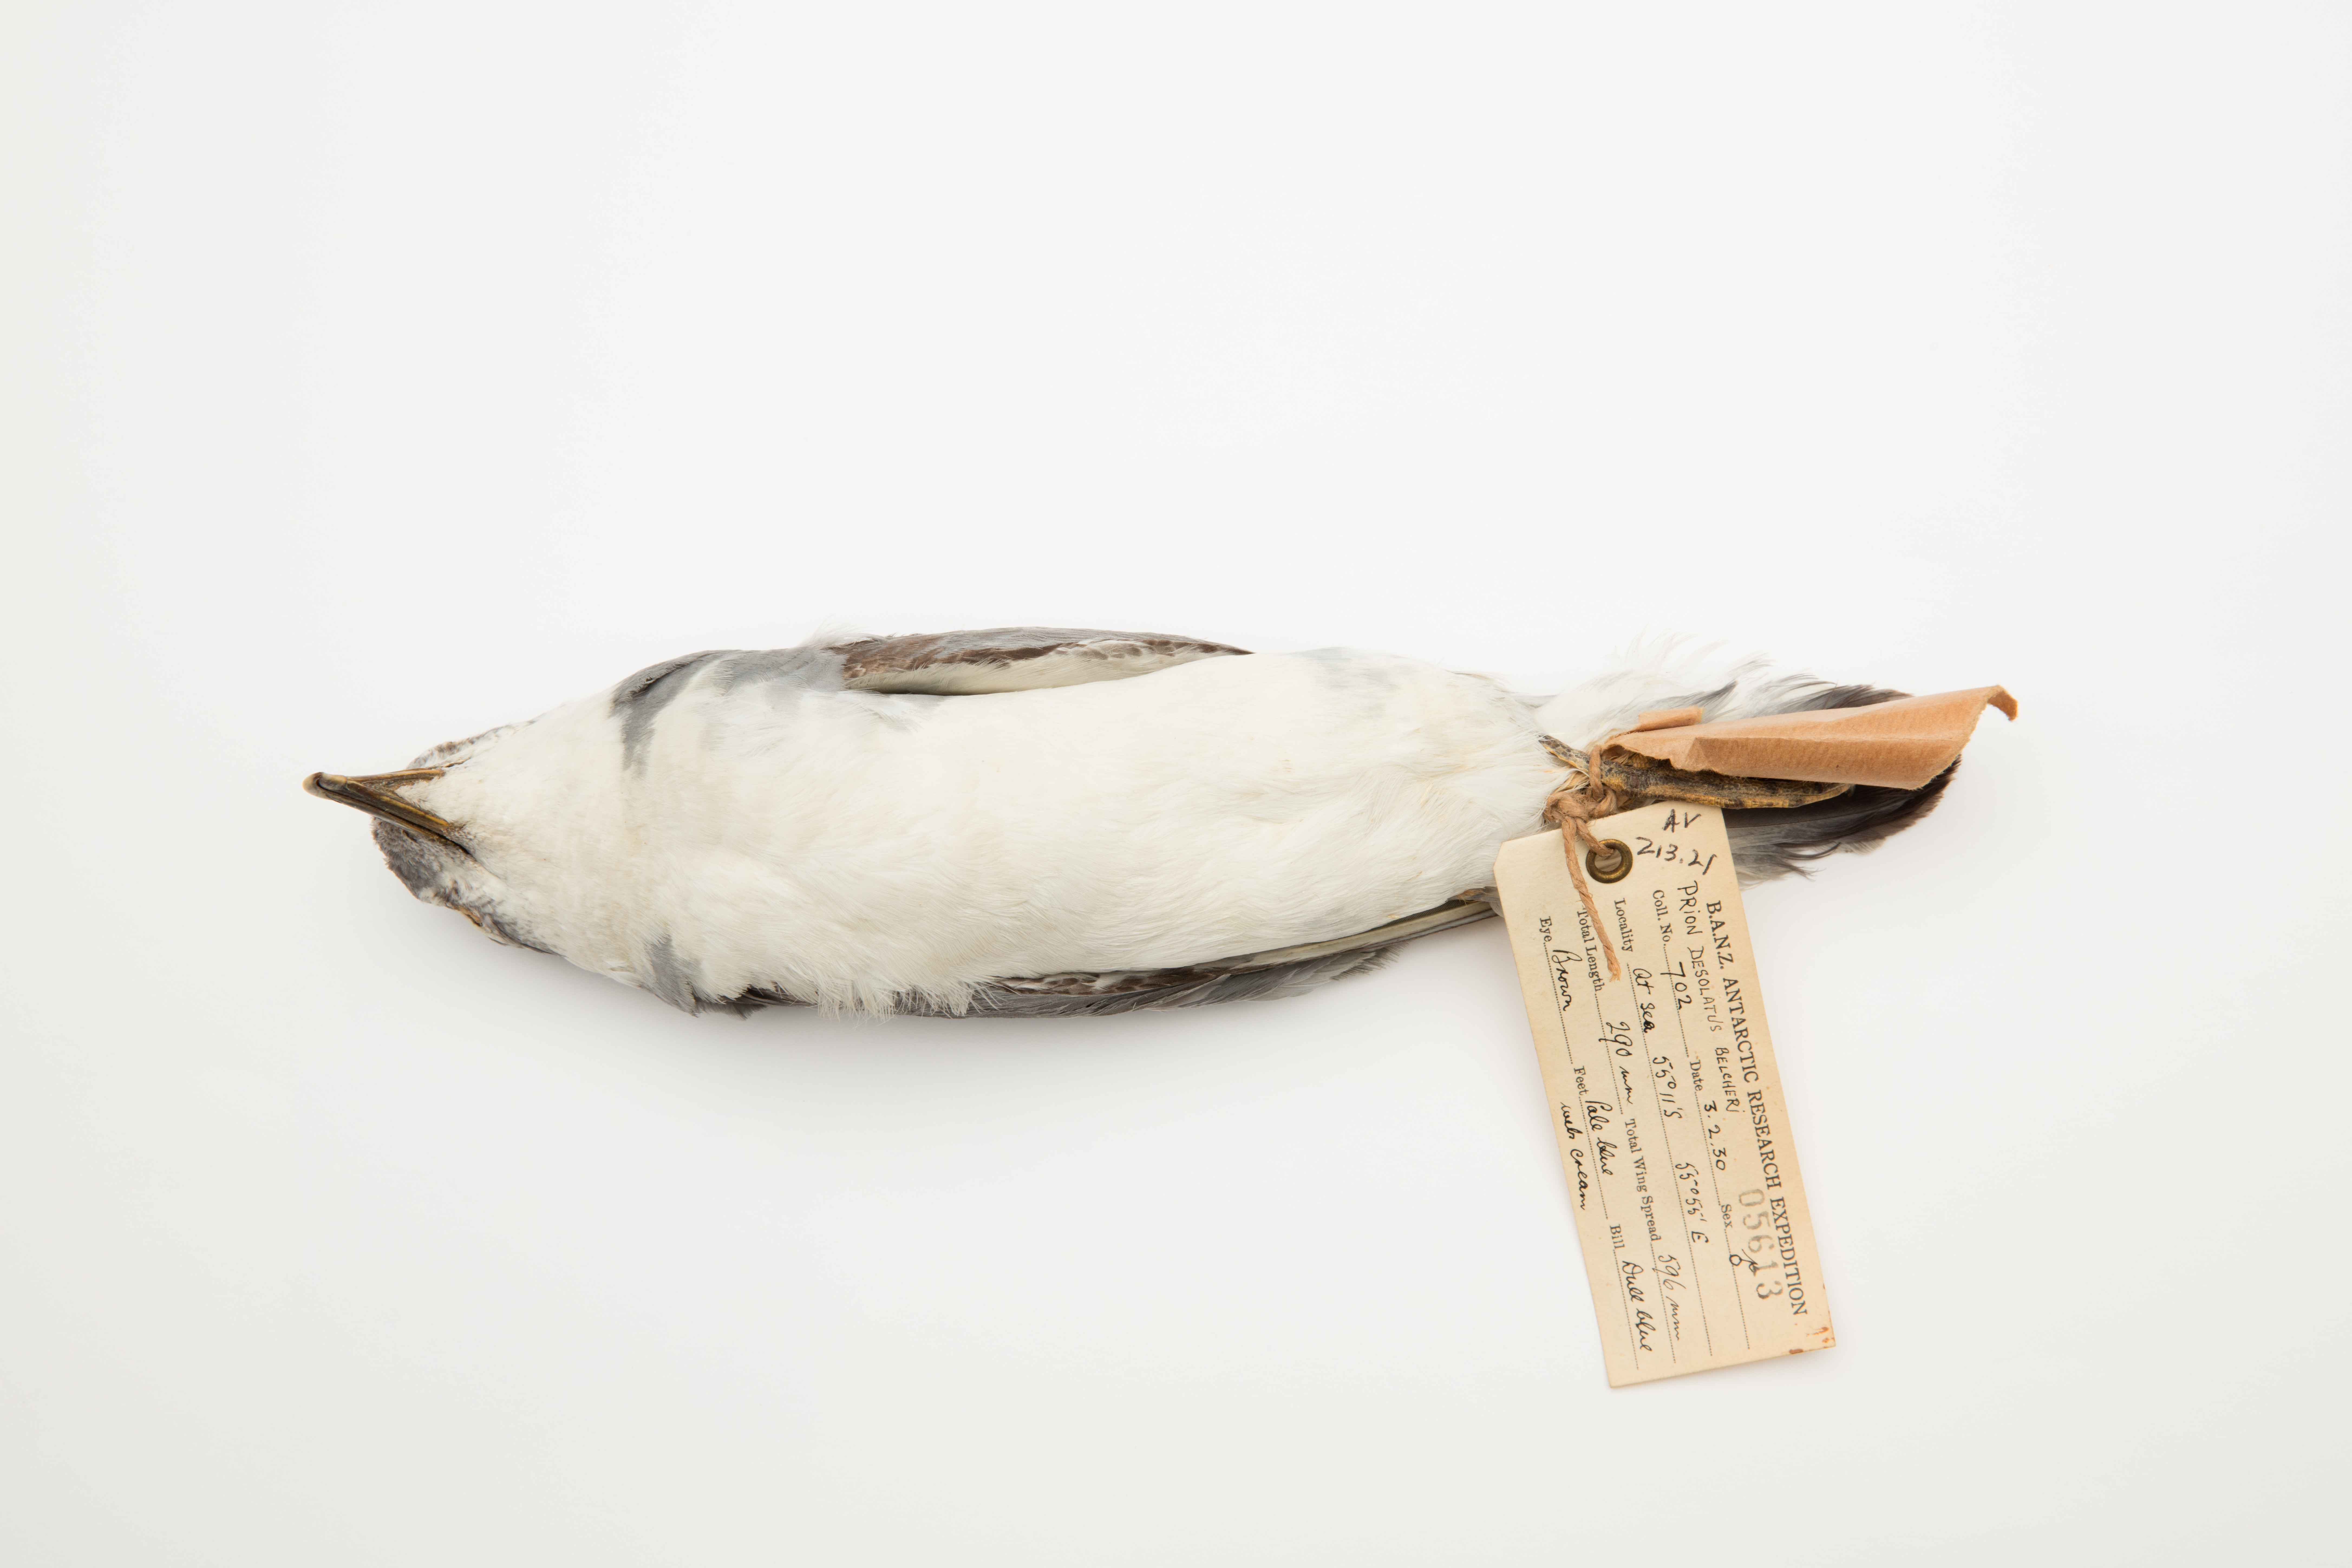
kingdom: Animalia
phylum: Chordata
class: Aves
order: Procellariiformes
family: Procellariidae
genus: Pachyptila
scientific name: Pachyptila belcheri
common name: Slender-billed prion
